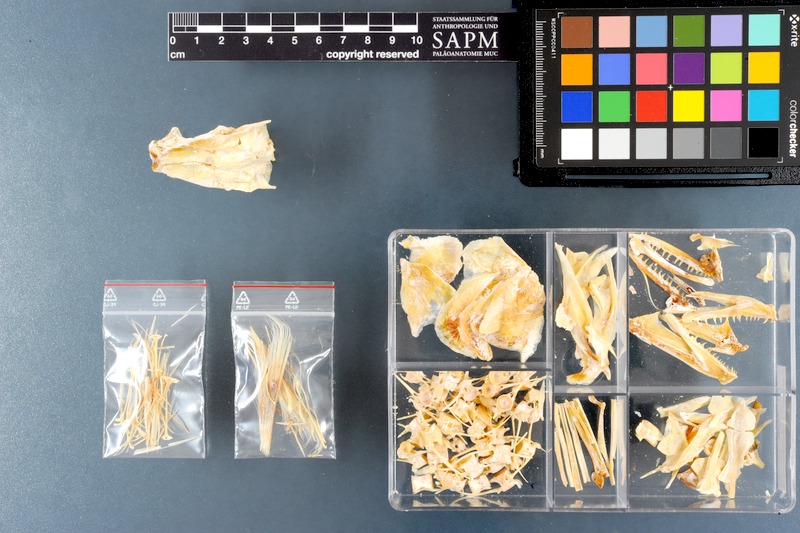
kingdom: Animalia
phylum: Chordata
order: Perciformes
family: Scombridae
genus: Sarda
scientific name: Sarda chiliensis
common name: Pacific bonito
